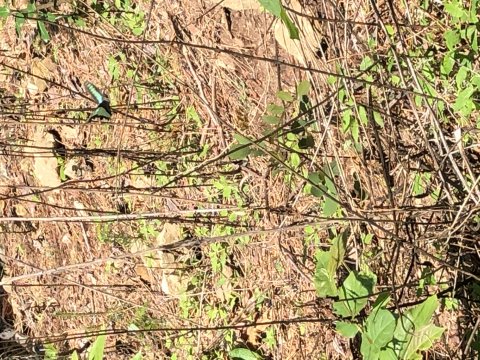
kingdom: Fungi
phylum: Ascomycota
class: Sordariomycetes
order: Microascales
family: Microascaceae
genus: Graphium
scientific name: Graphium sarpedon
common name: Common Bluebottle
